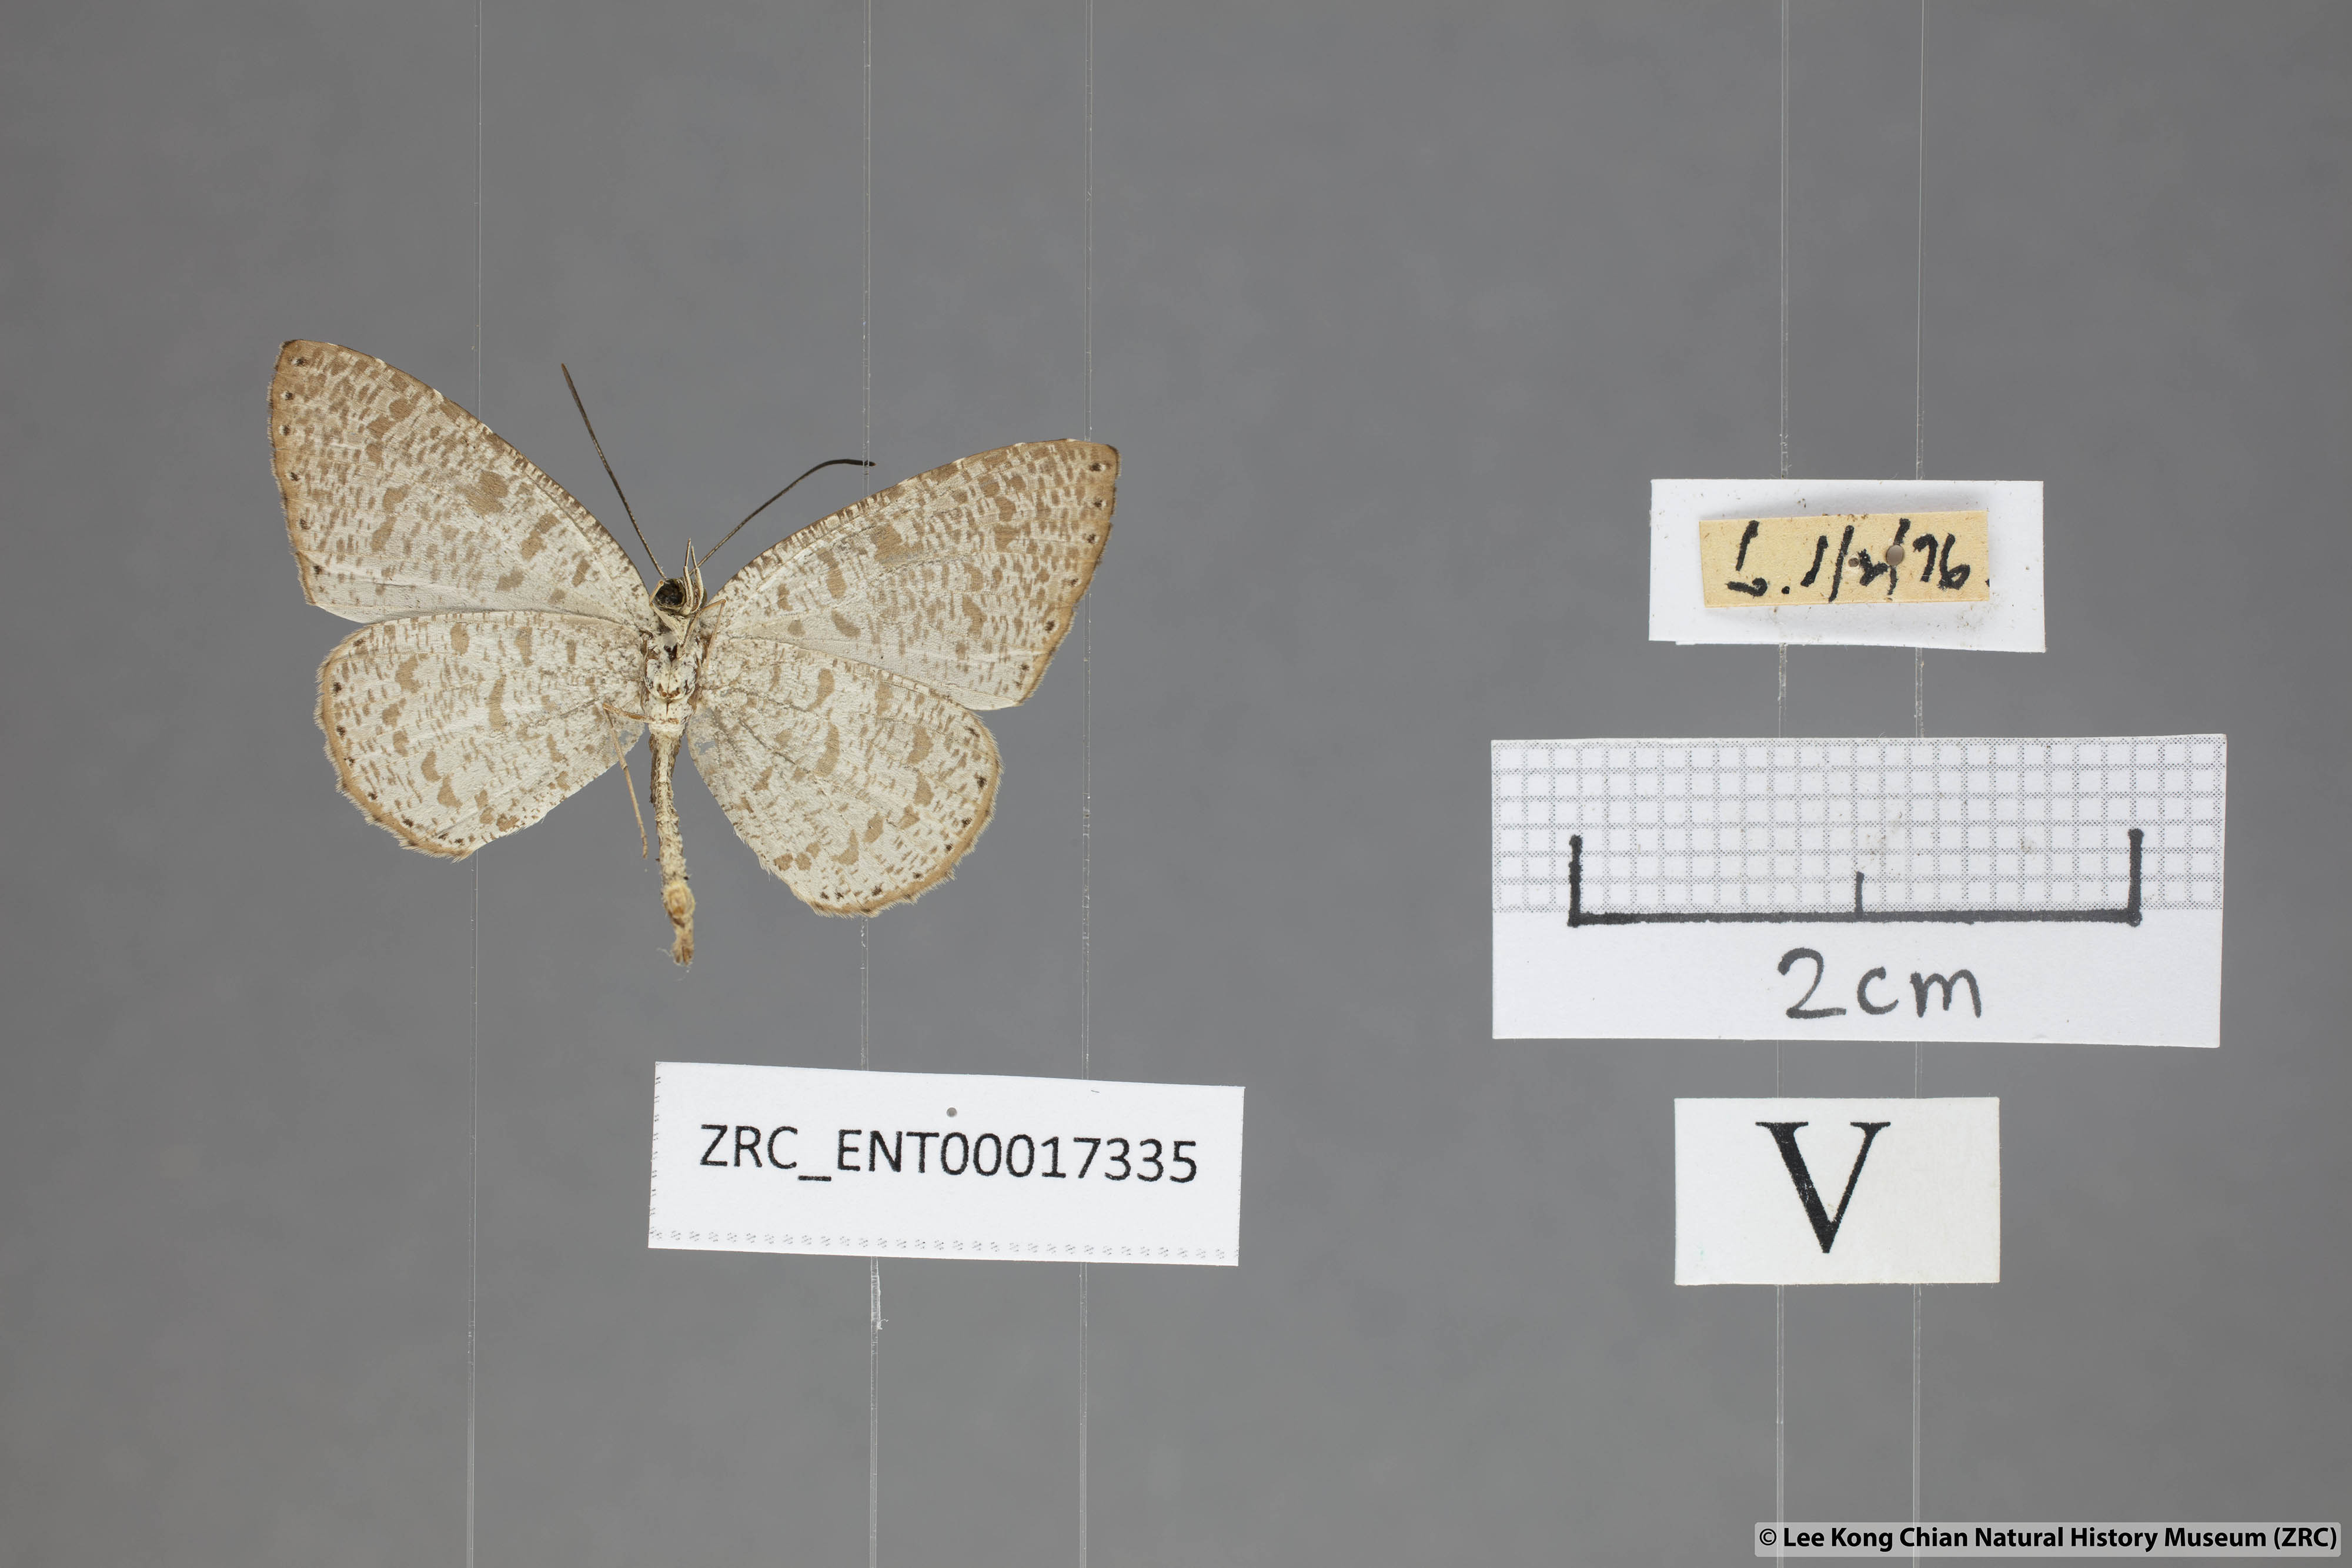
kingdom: Animalia
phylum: Arthropoda
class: Insecta
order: Lepidoptera
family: Lycaenidae
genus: Allotinus
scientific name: Allotinus sarastes
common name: Peninsular darkie
